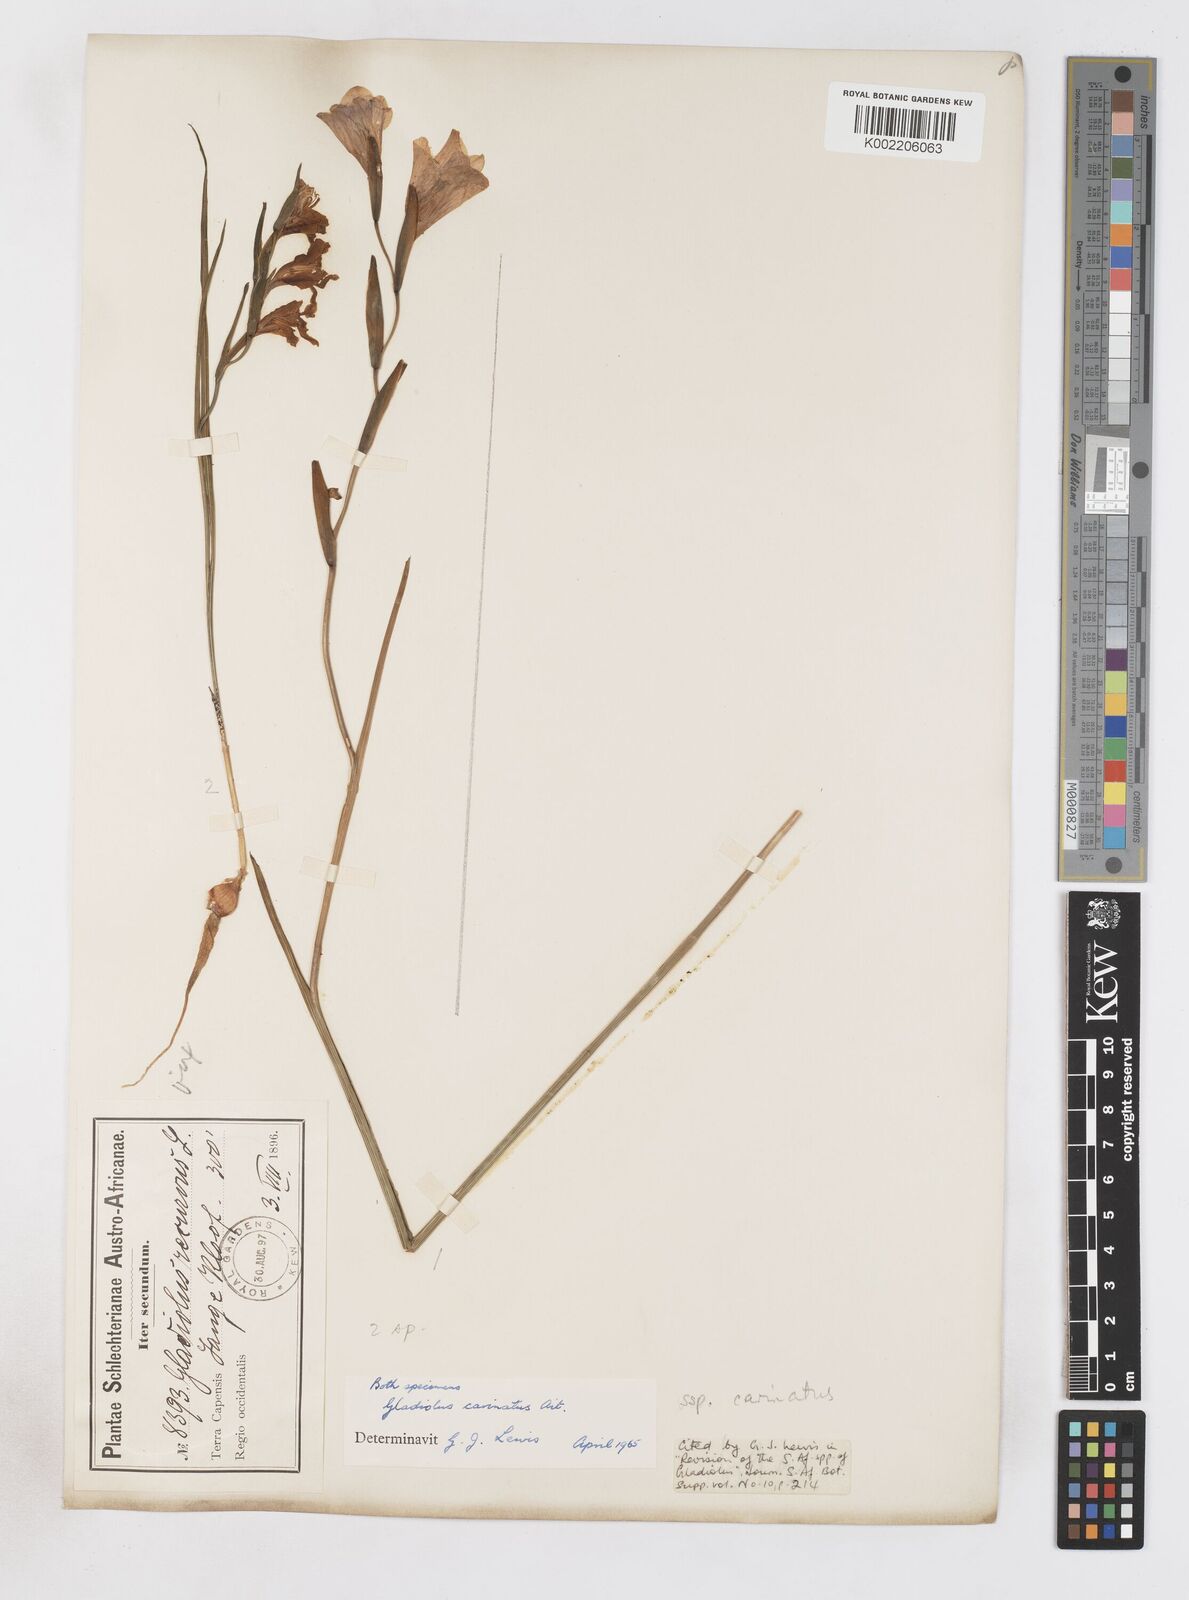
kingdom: Plantae
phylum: Tracheophyta
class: Liliopsida
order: Asparagales
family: Iridaceae
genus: Gladiolus
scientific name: Gladiolus carinatus
